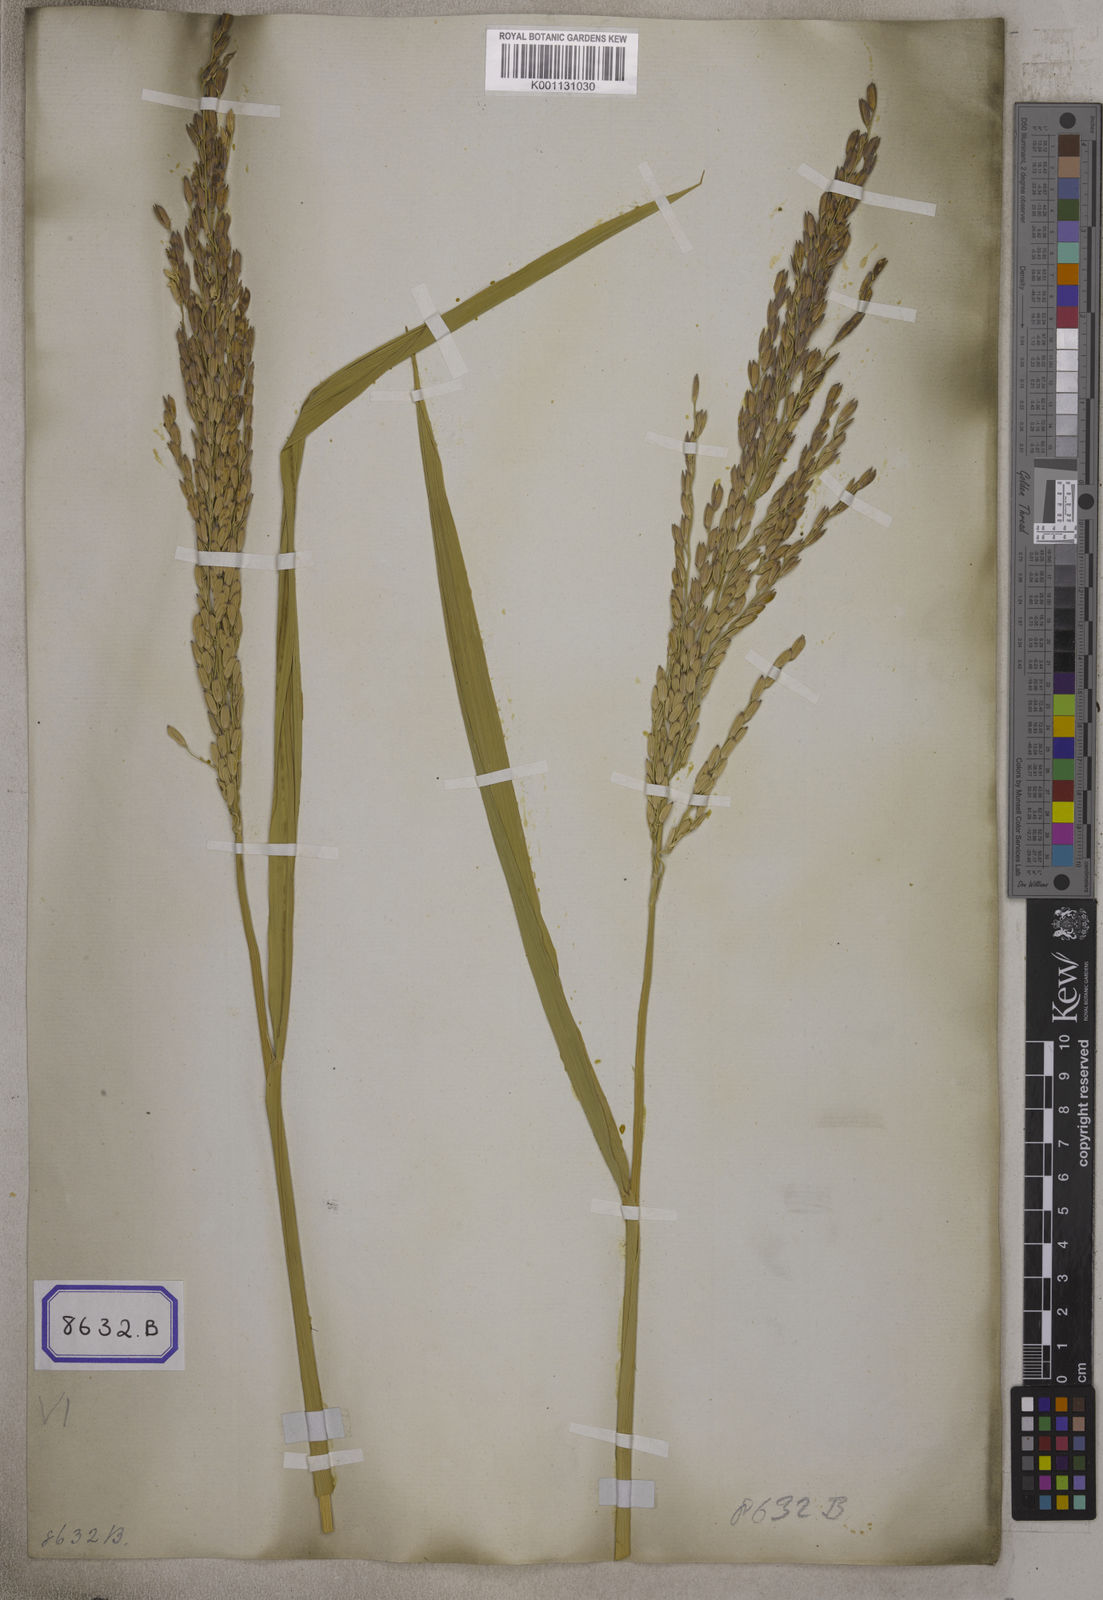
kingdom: Plantae
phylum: Tracheophyta
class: Liliopsida
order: Poales
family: Poaceae
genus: Oryza
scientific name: Oryza sativa
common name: Rice
